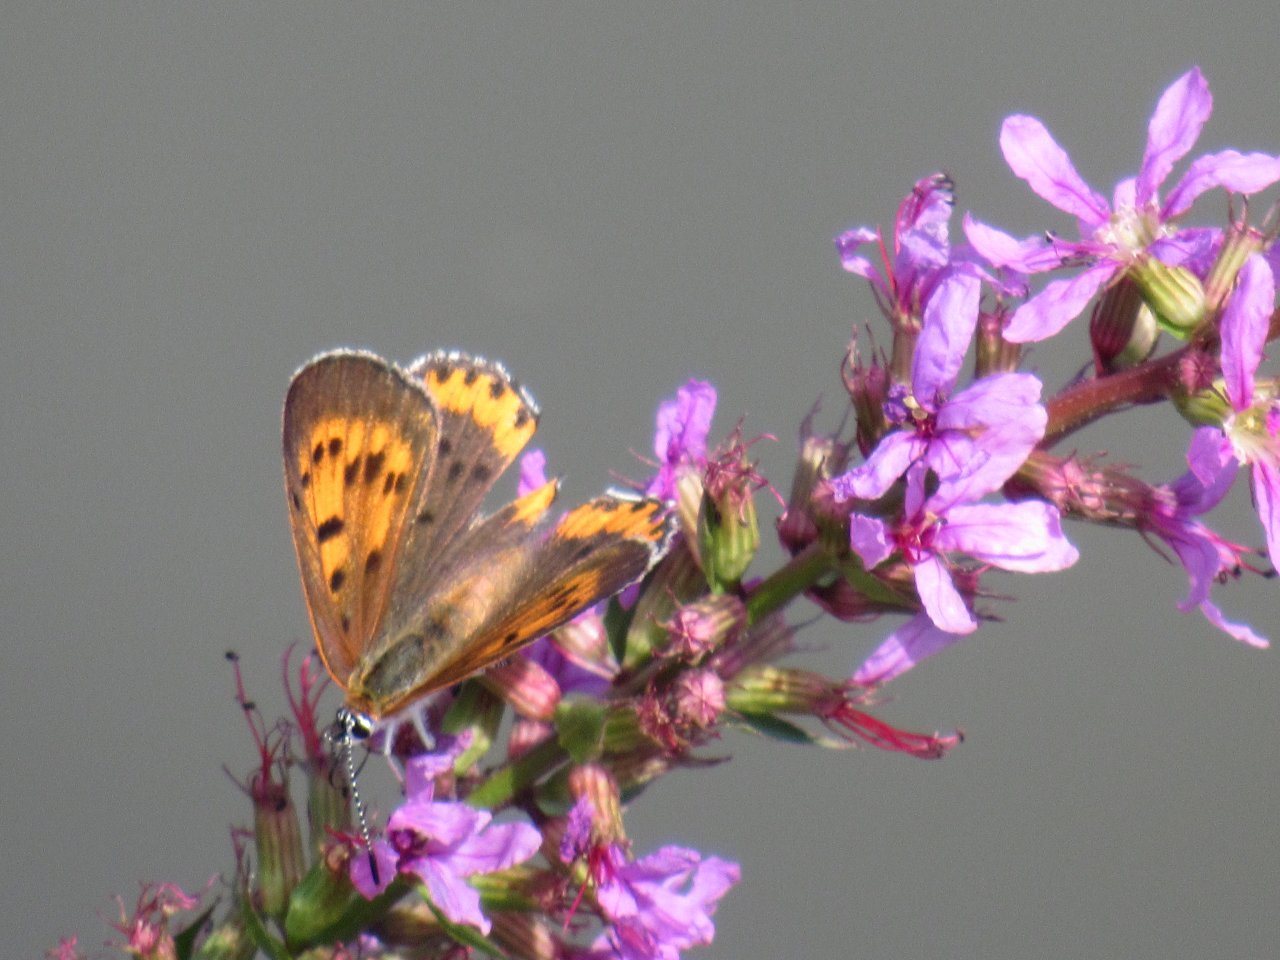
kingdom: Animalia
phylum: Arthropoda
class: Insecta
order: Lepidoptera
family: Sesiidae
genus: Sesia
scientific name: Sesia Lycaena hyllus
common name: Bronze Copper
